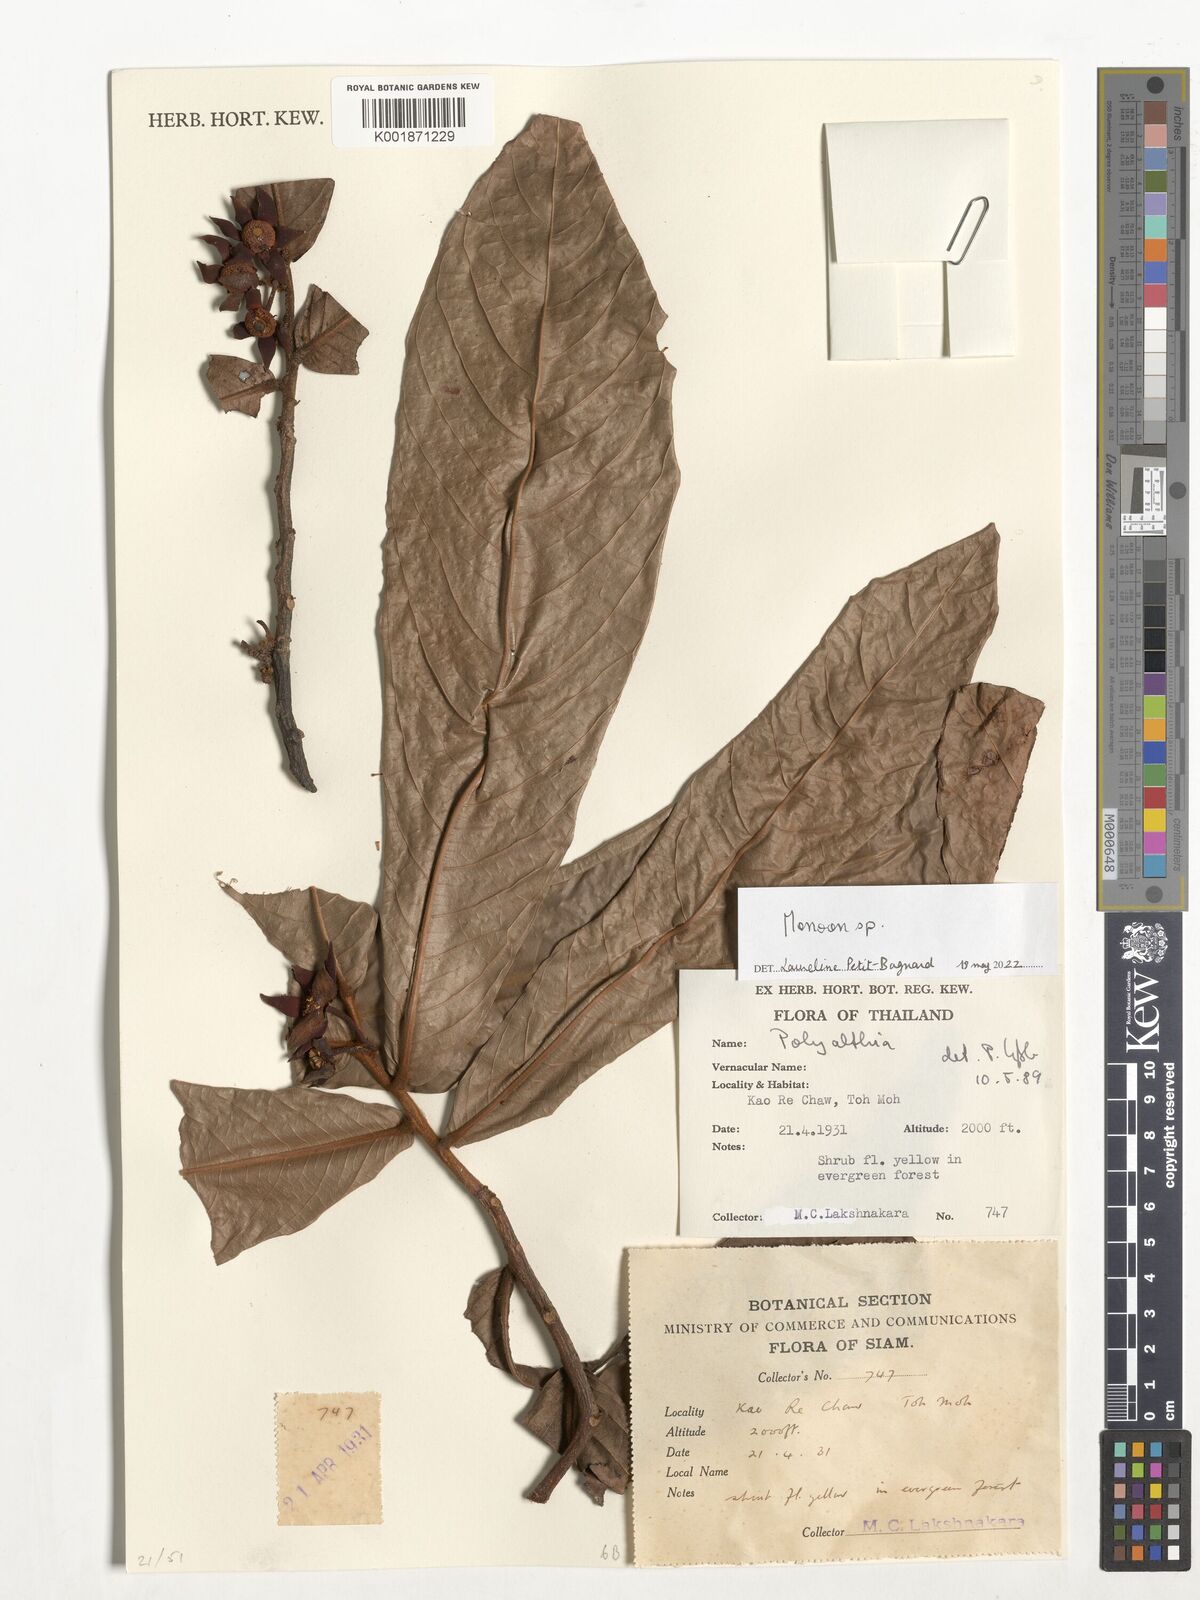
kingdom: Plantae
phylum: Tracheophyta
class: Magnoliopsida
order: Magnoliales
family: Annonaceae
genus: Monoon
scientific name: Monoon
